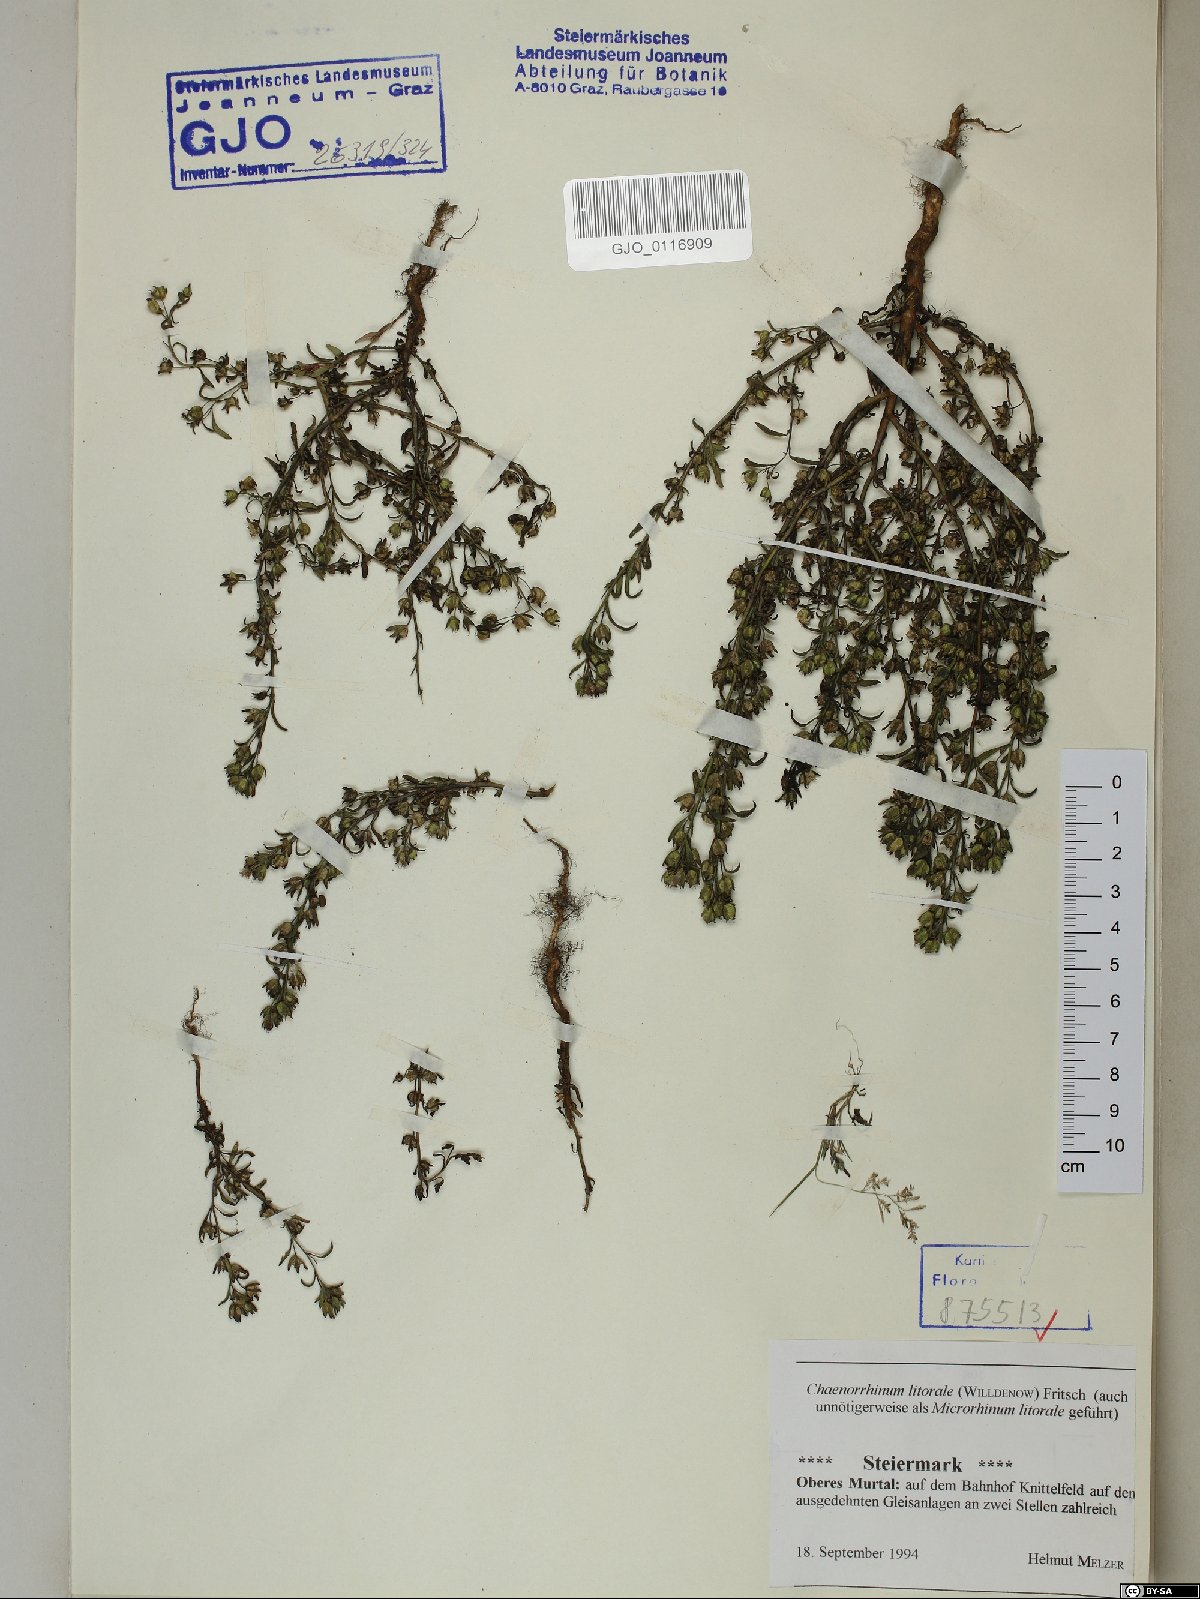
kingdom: Plantae
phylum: Tracheophyta
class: Magnoliopsida
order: Lamiales
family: Plantaginaceae
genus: Chaenorhinum
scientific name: Chaenorhinum litorale
